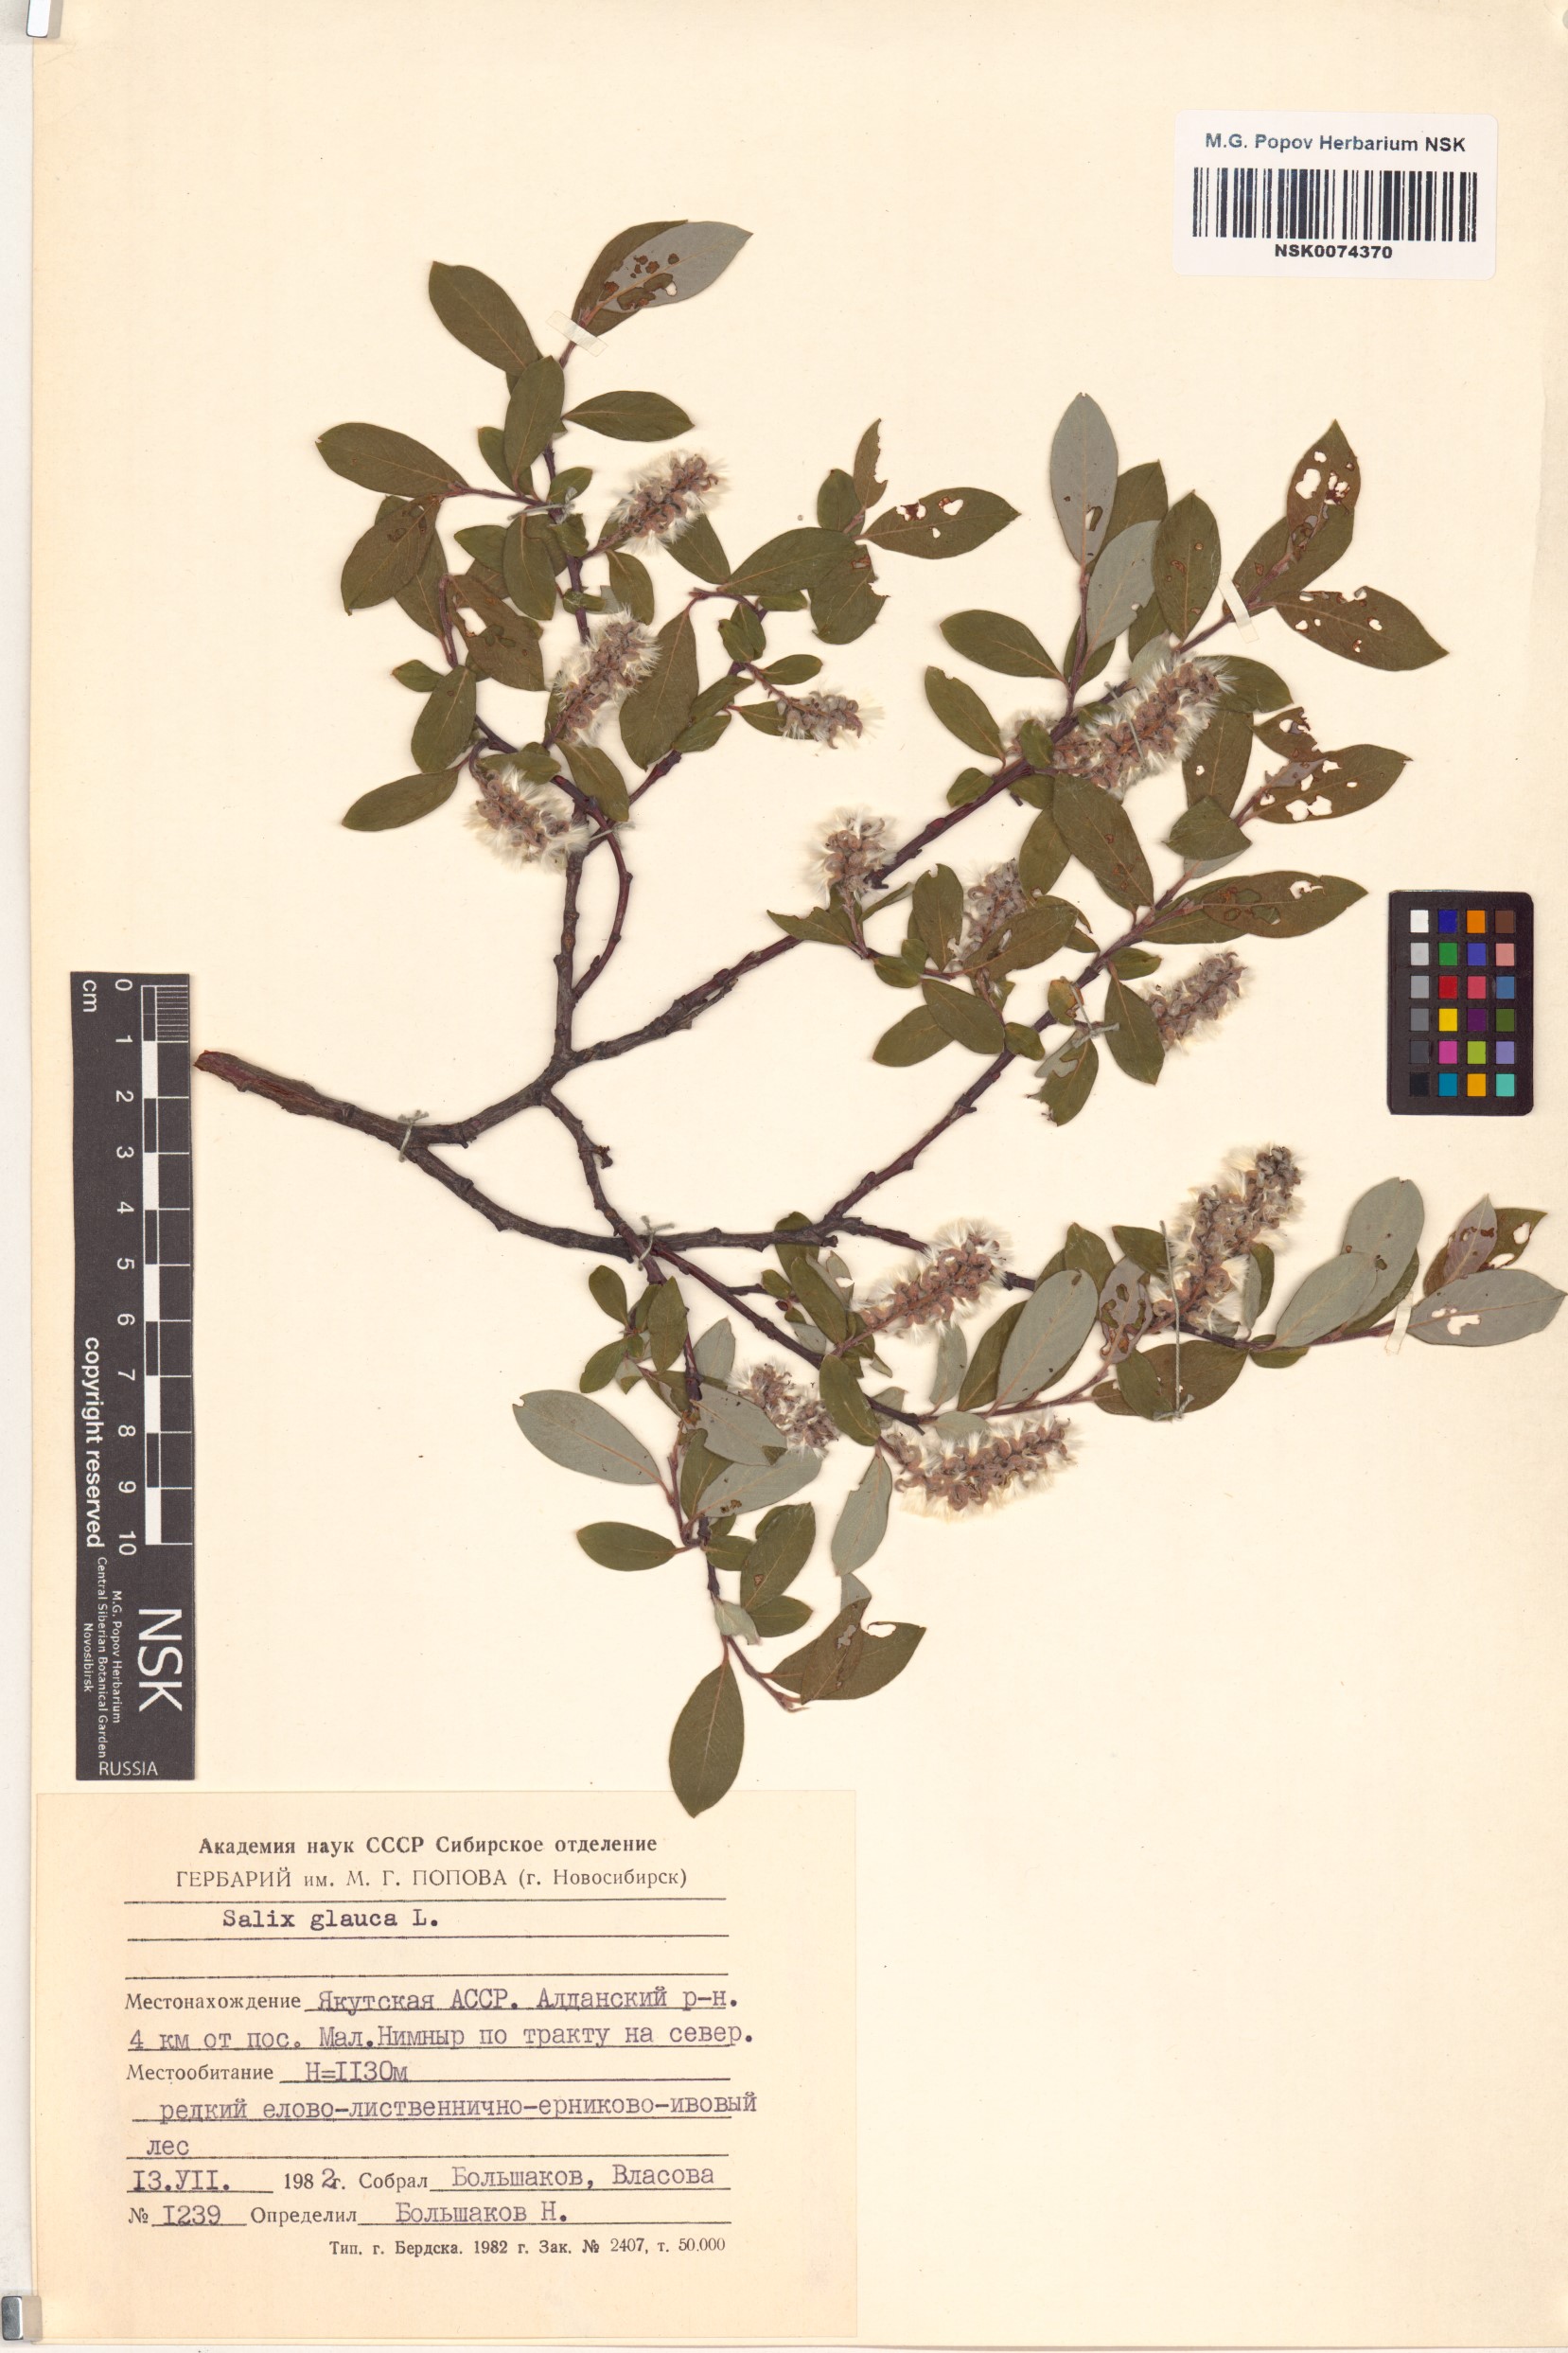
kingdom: Plantae
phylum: Tracheophyta
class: Magnoliopsida
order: Malpighiales
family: Salicaceae
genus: Salix
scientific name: Salix glauca
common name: Glaucous willow
